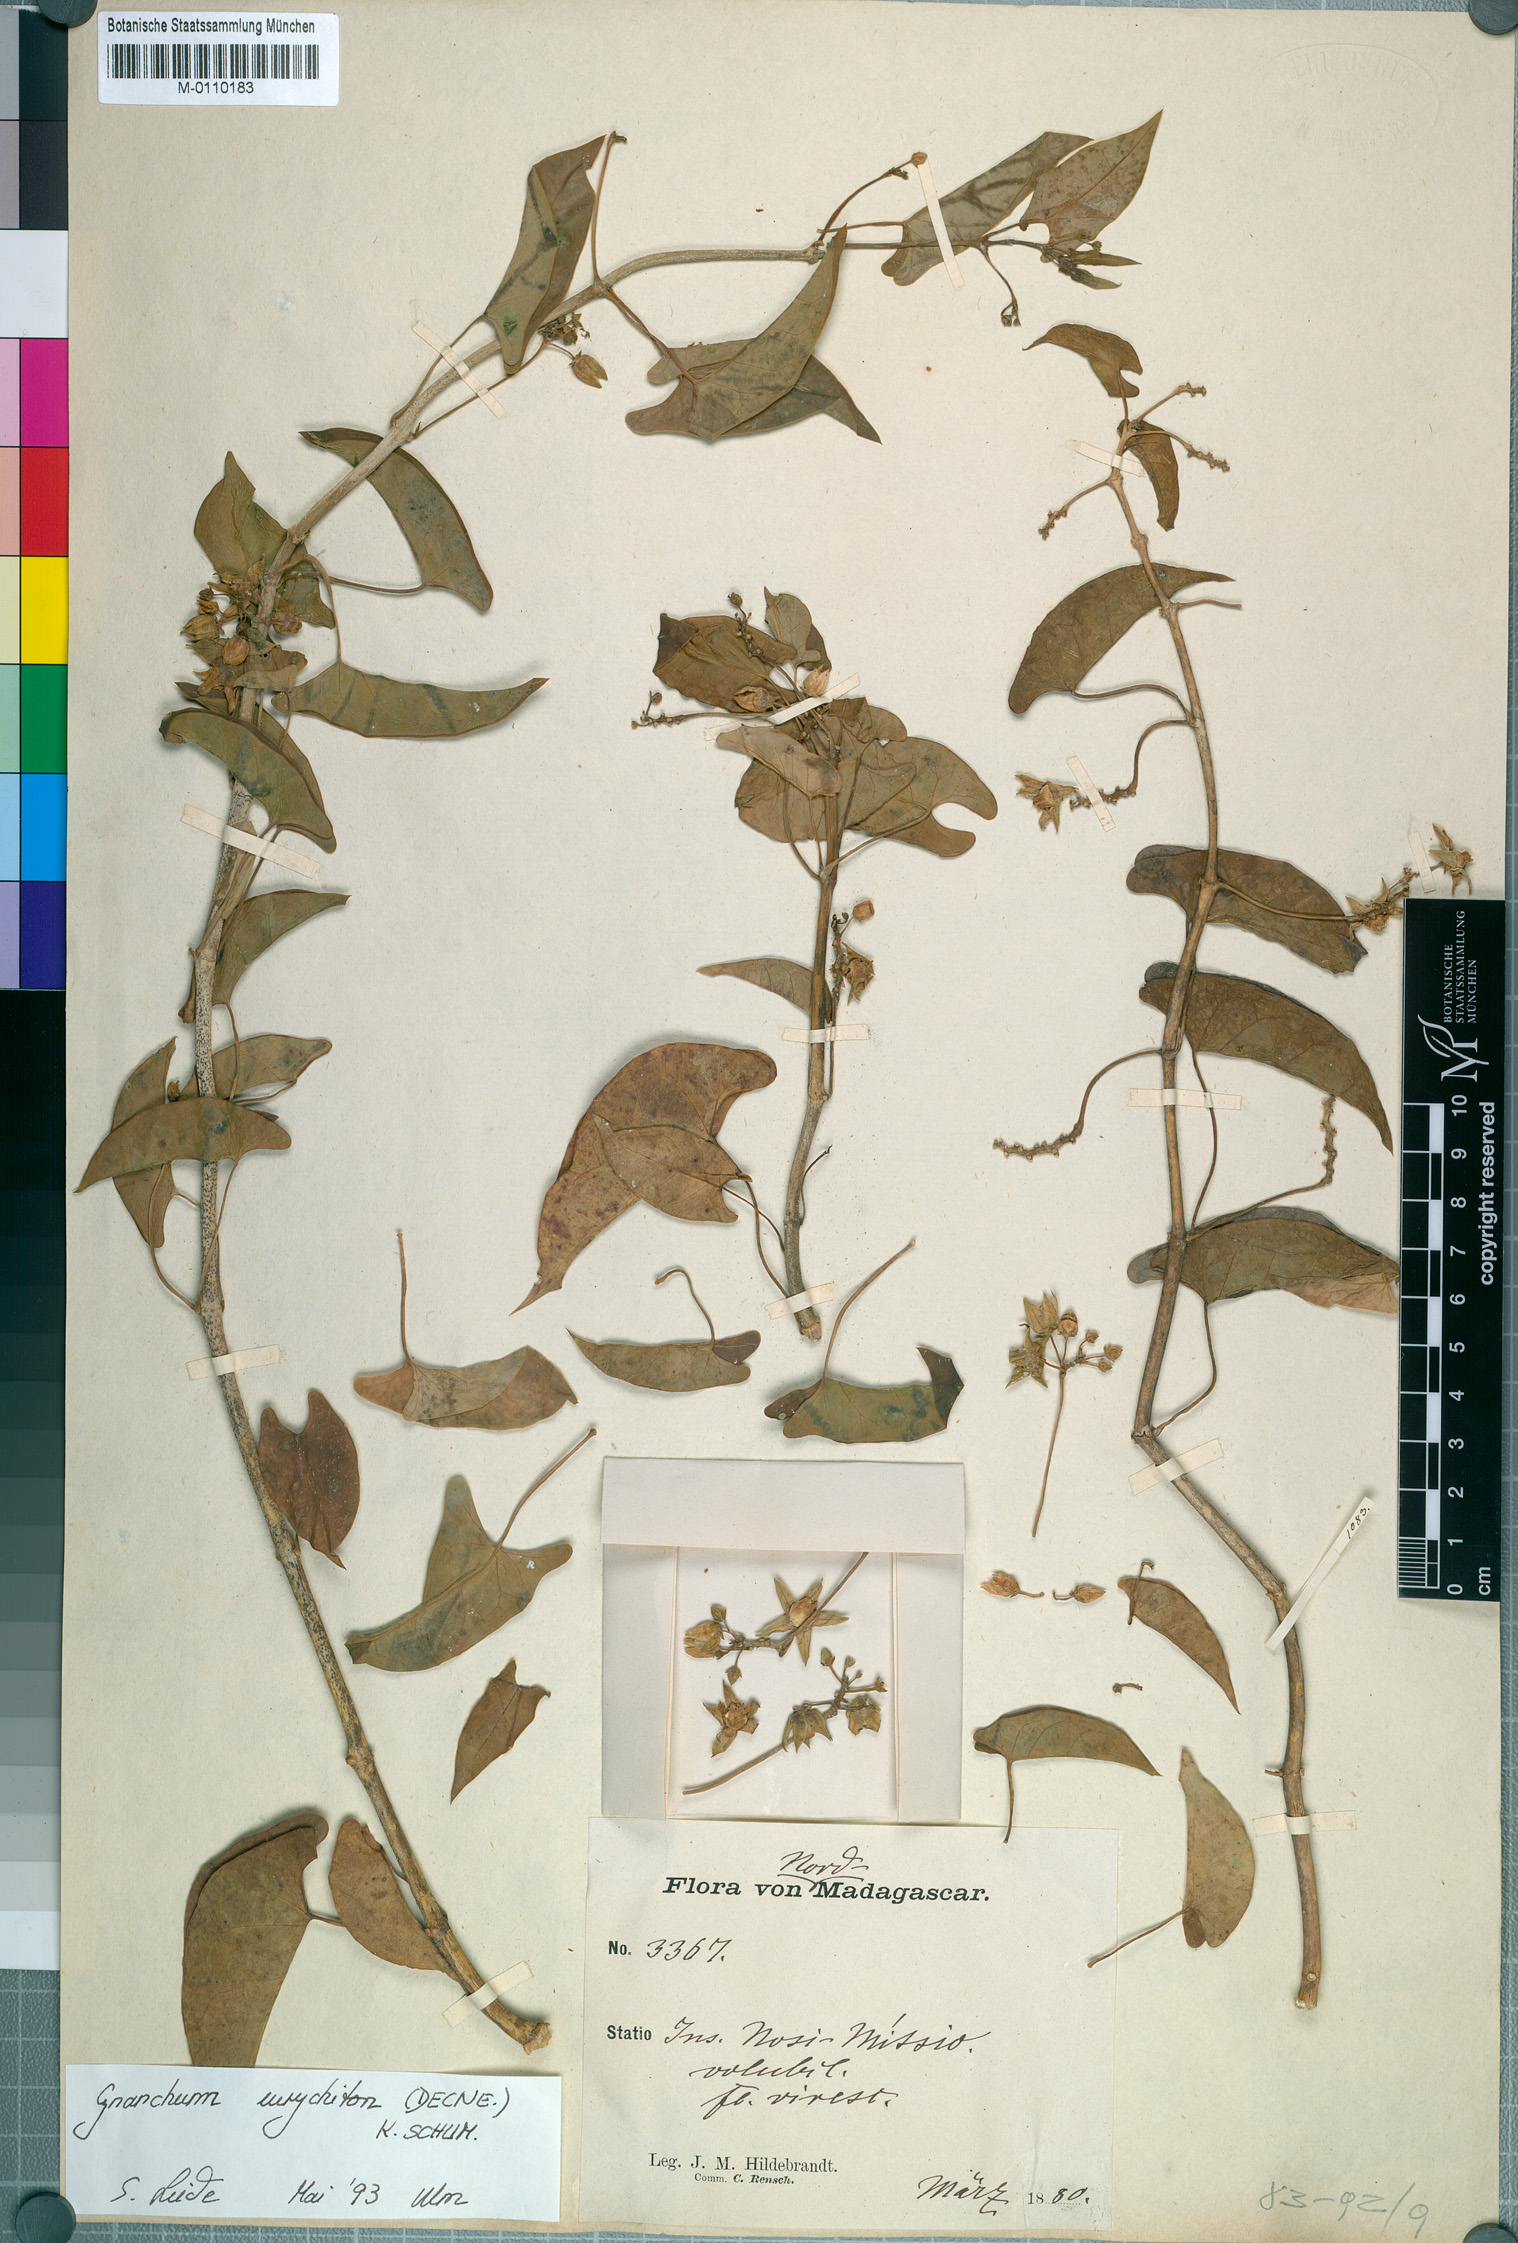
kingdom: Plantae
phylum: Tracheophyta
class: Magnoliopsida
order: Gentianales
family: Apocynaceae
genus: Cynanchum
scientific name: Cynanchum eurychiton
